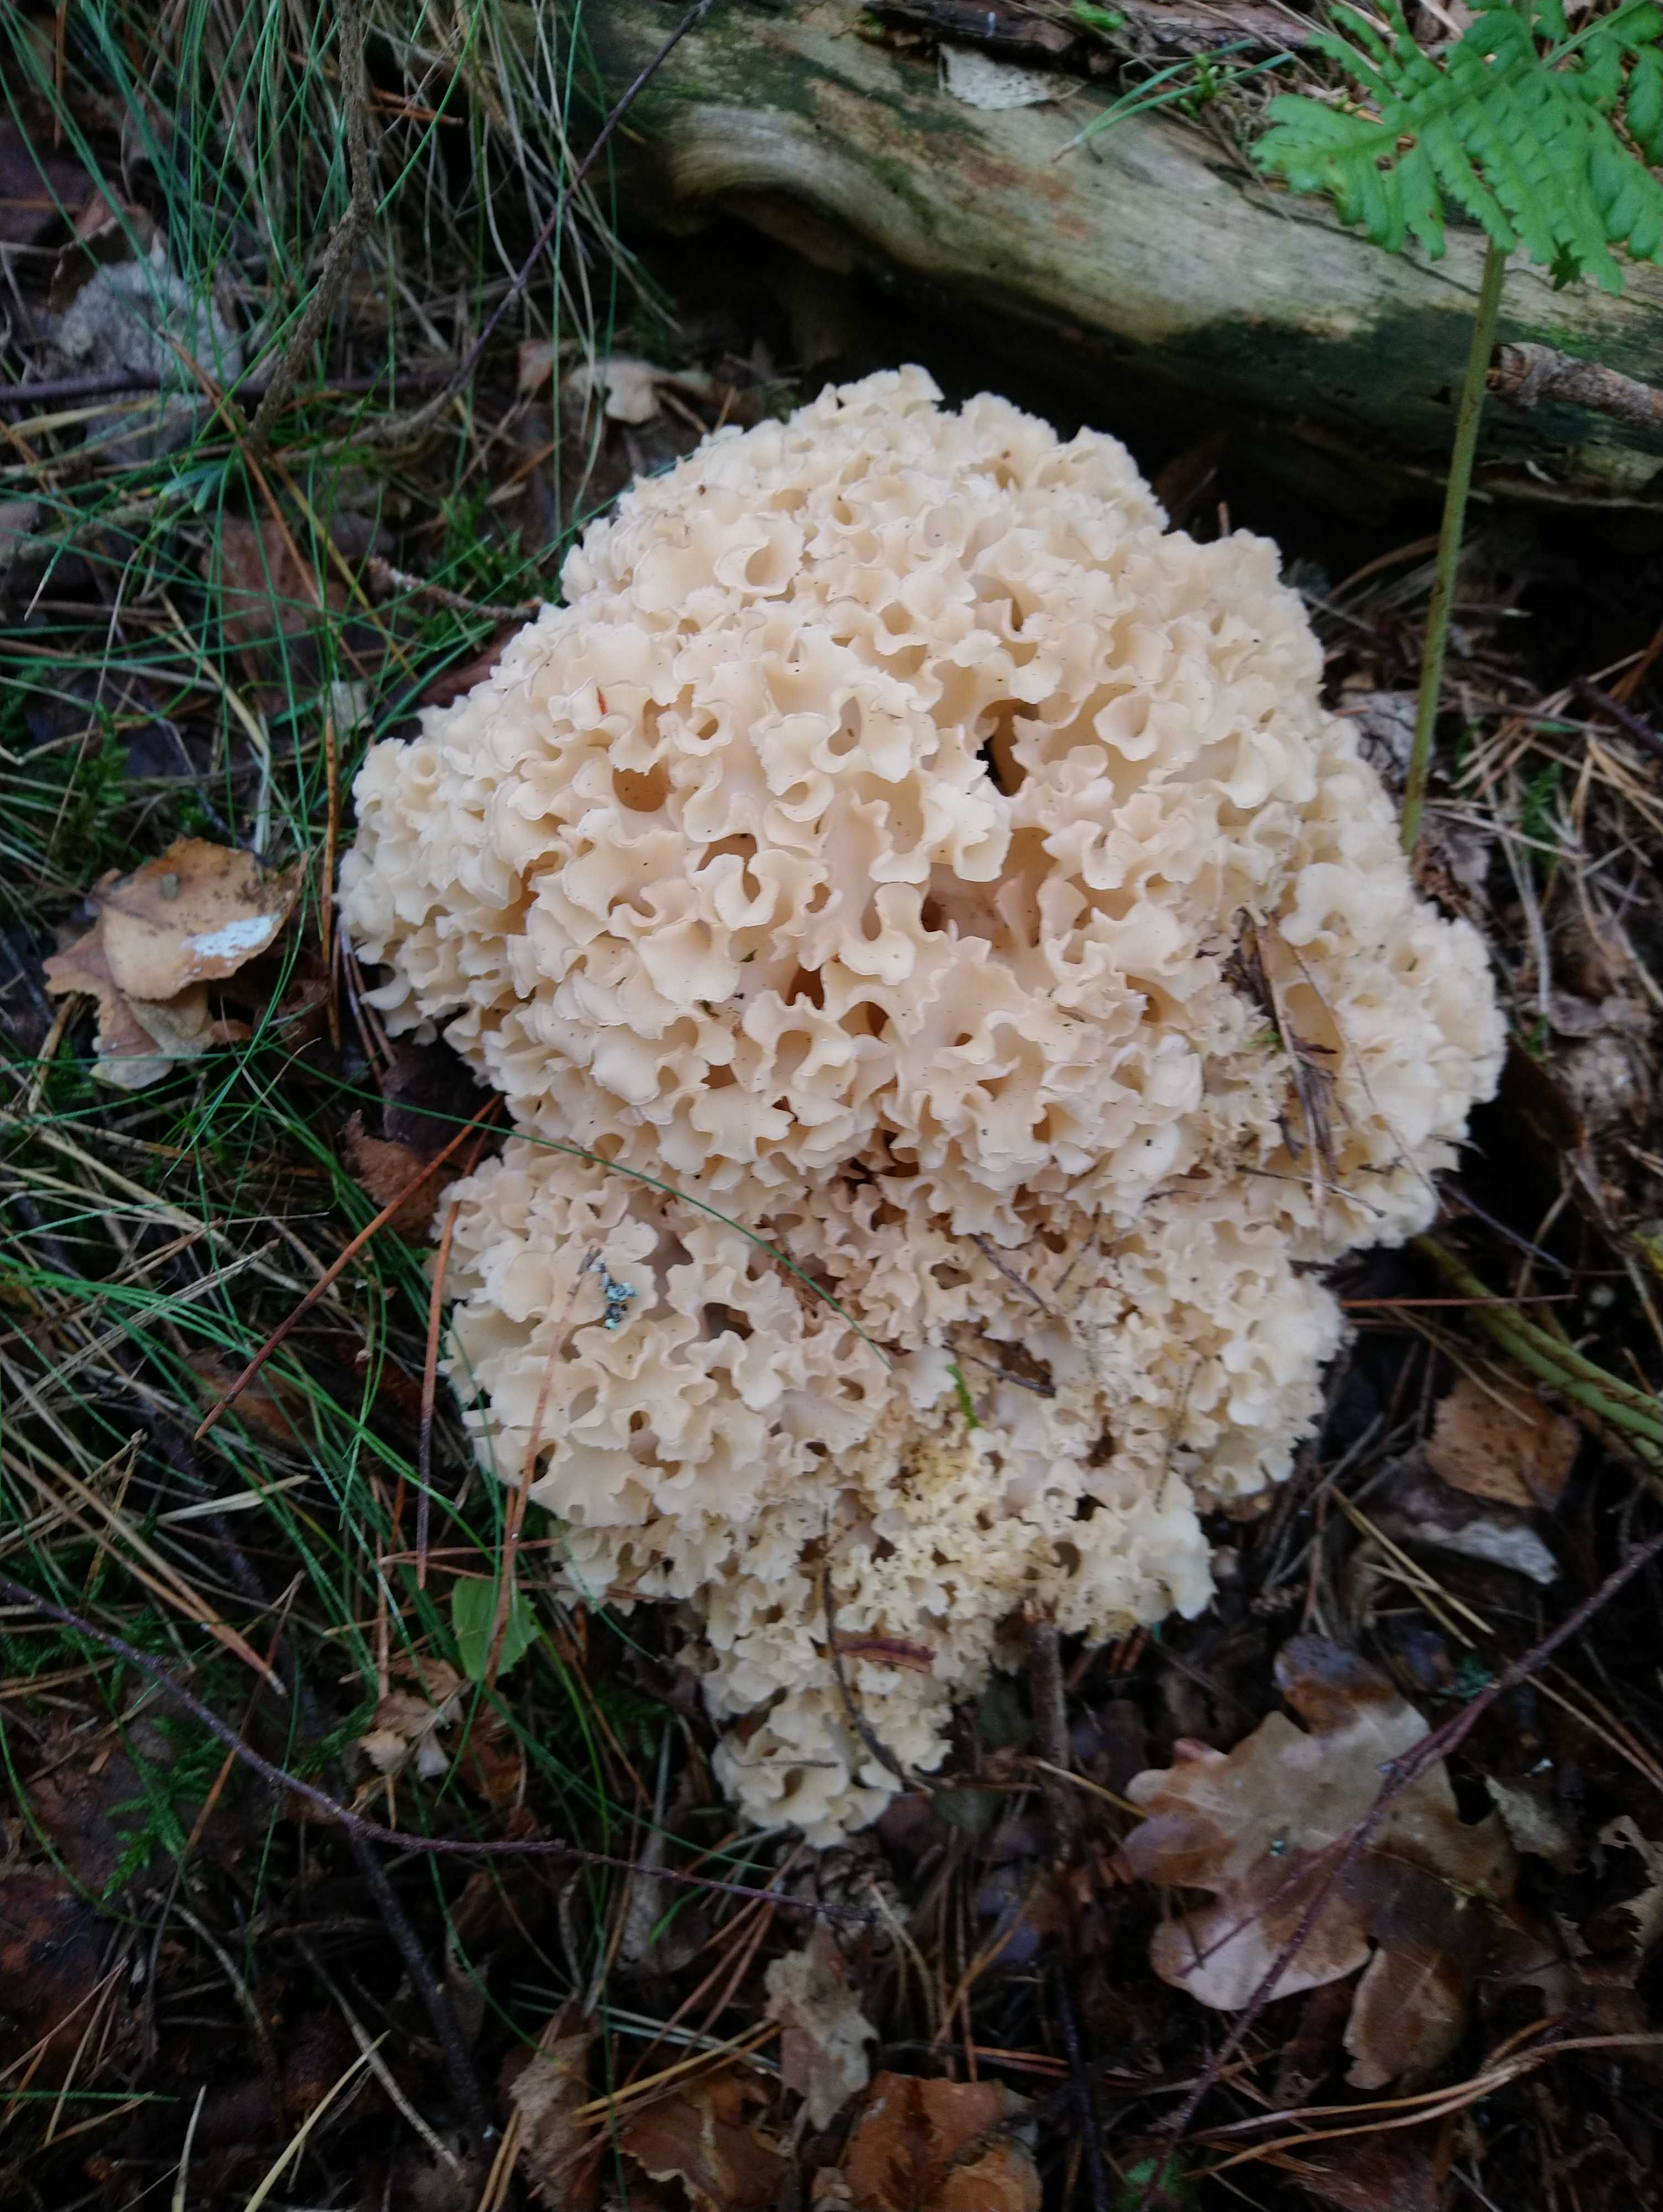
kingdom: Fungi
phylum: Basidiomycota
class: Agaricomycetes
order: Polyporales
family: Sparassidaceae
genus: Sparassis
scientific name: Sparassis crispa
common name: kruset blomkålssvamp
